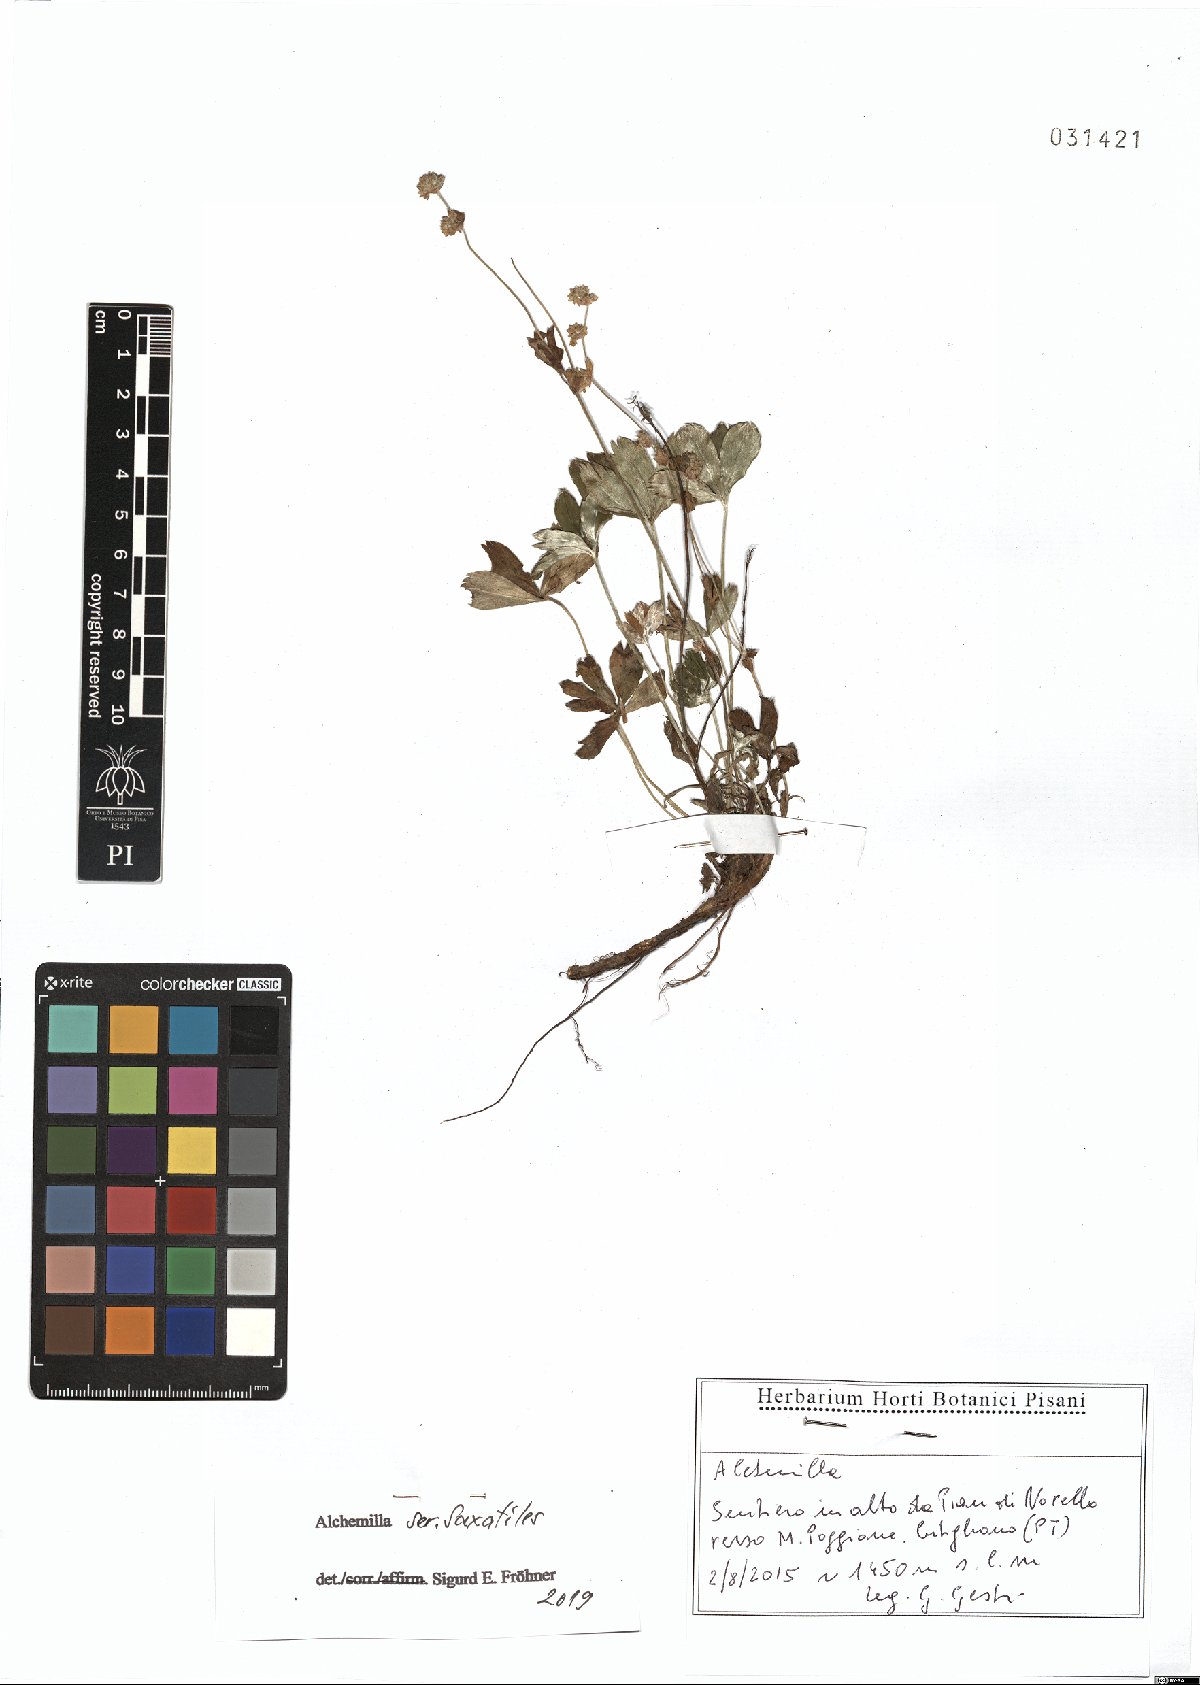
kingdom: Plantae
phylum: Tracheophyta
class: Magnoliopsida
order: Rosales
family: Rosaceae
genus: Alchemilla
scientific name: Alchemilla saxatilis
